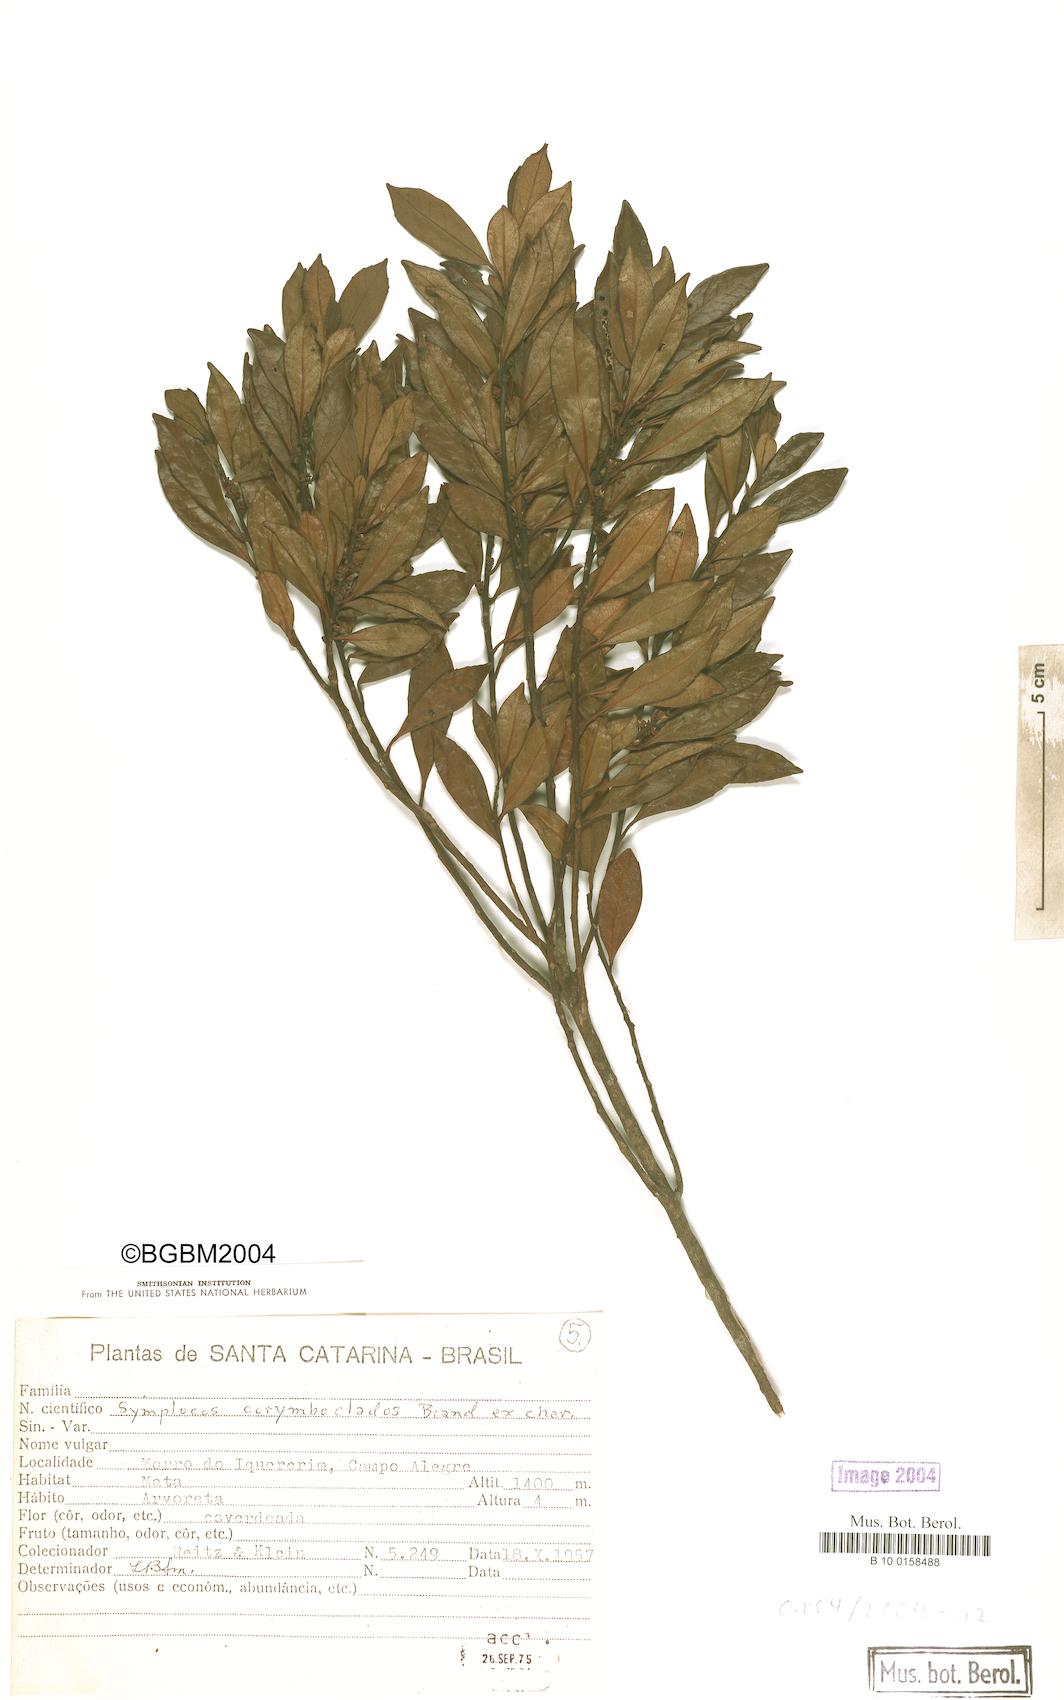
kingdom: Plantae
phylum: Tracheophyta
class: Magnoliopsida
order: Ericales
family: Symplocaceae
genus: Symplocos
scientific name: Symplocos corymboclados
